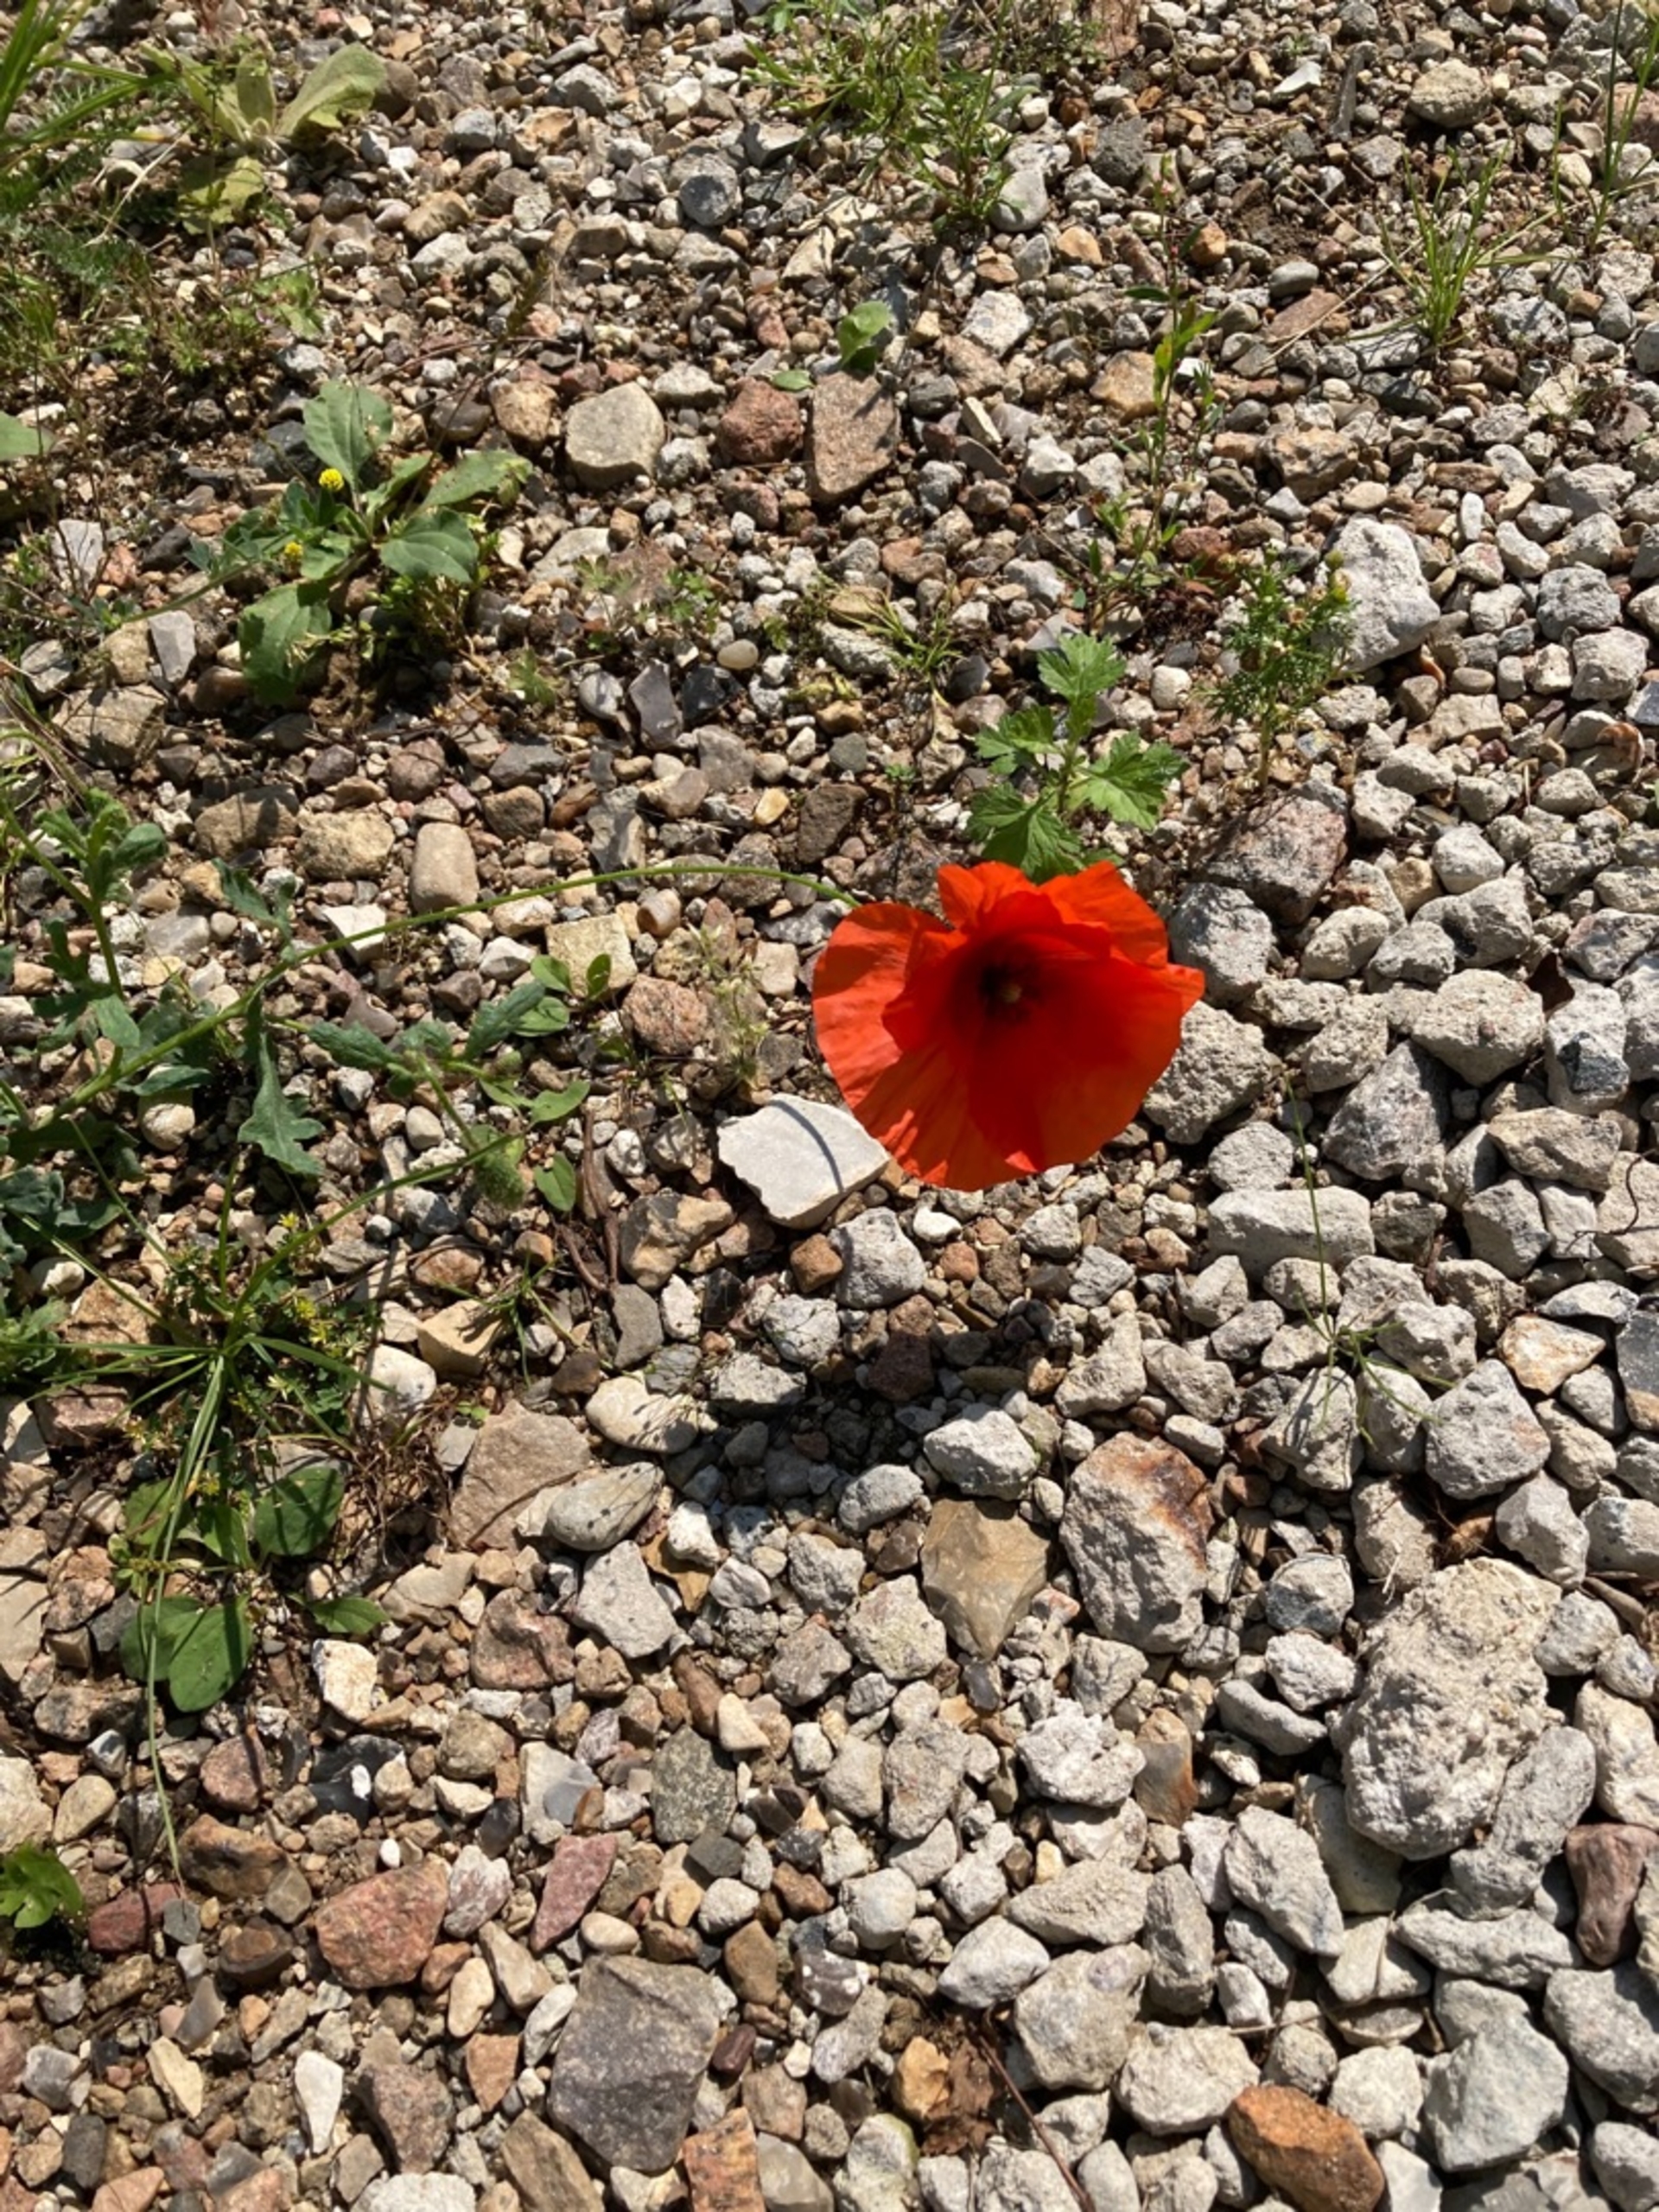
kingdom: Plantae
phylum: Tracheophyta
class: Magnoliopsida
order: Ranunculales
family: Papaveraceae
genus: Papaver
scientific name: Papaver dubium
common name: Gærde-valmue
